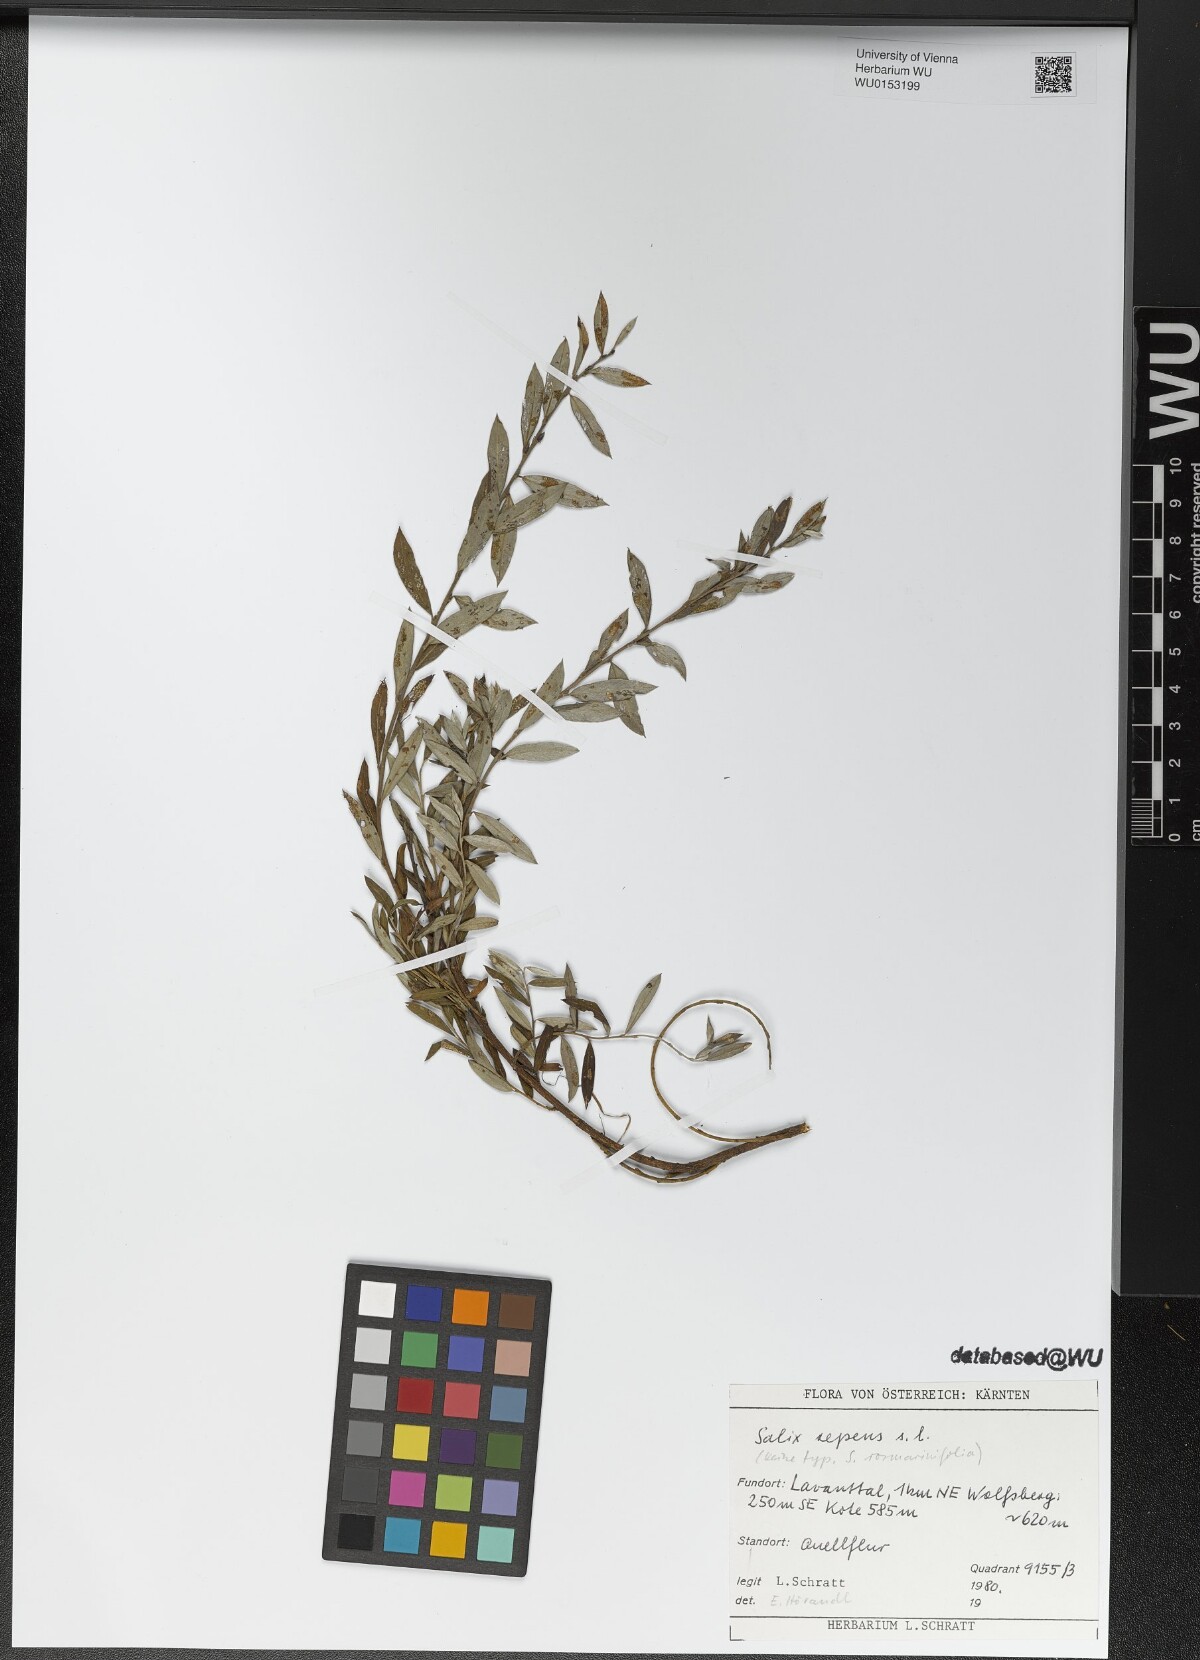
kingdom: Plantae
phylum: Tracheophyta
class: Magnoliopsida
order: Malpighiales
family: Salicaceae
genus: Salix
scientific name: Salix repens
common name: Creeping willow
